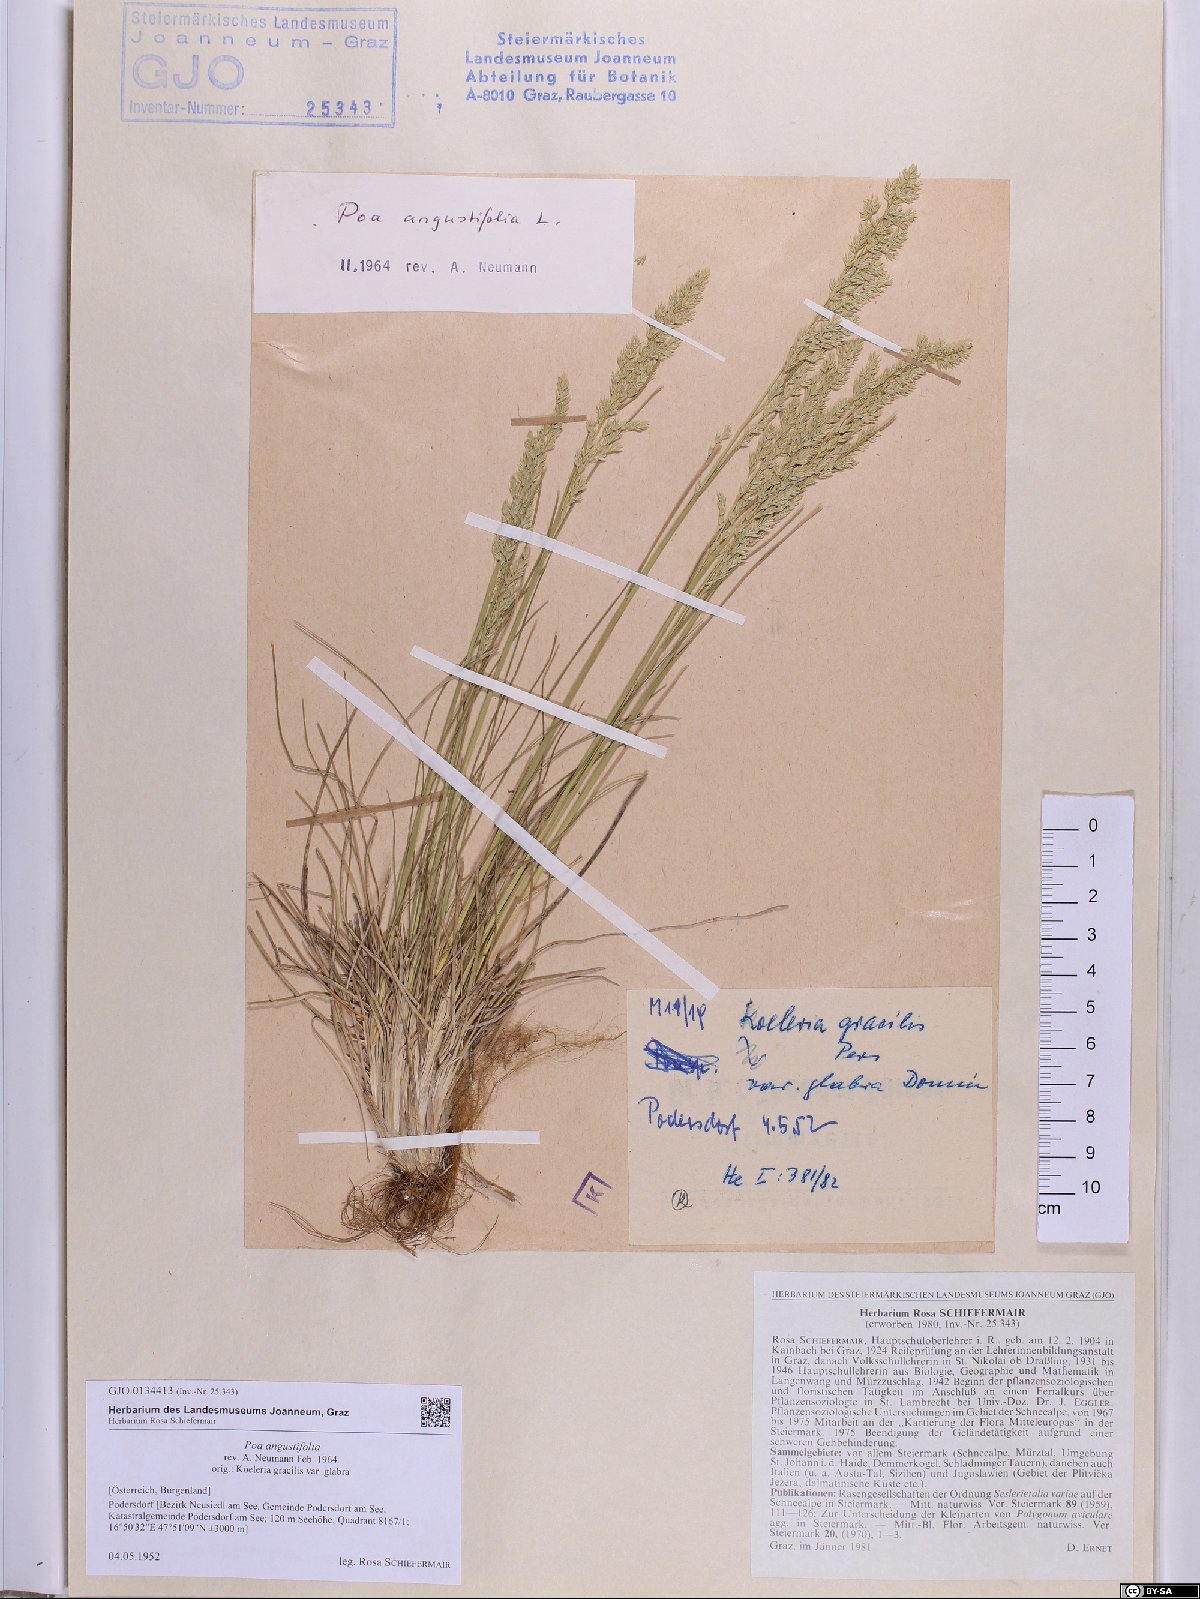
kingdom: Plantae
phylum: Tracheophyta
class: Liliopsida
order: Poales
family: Poaceae
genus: Poa
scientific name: Poa angustifolia
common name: Narrow-leaved meadow-grass
